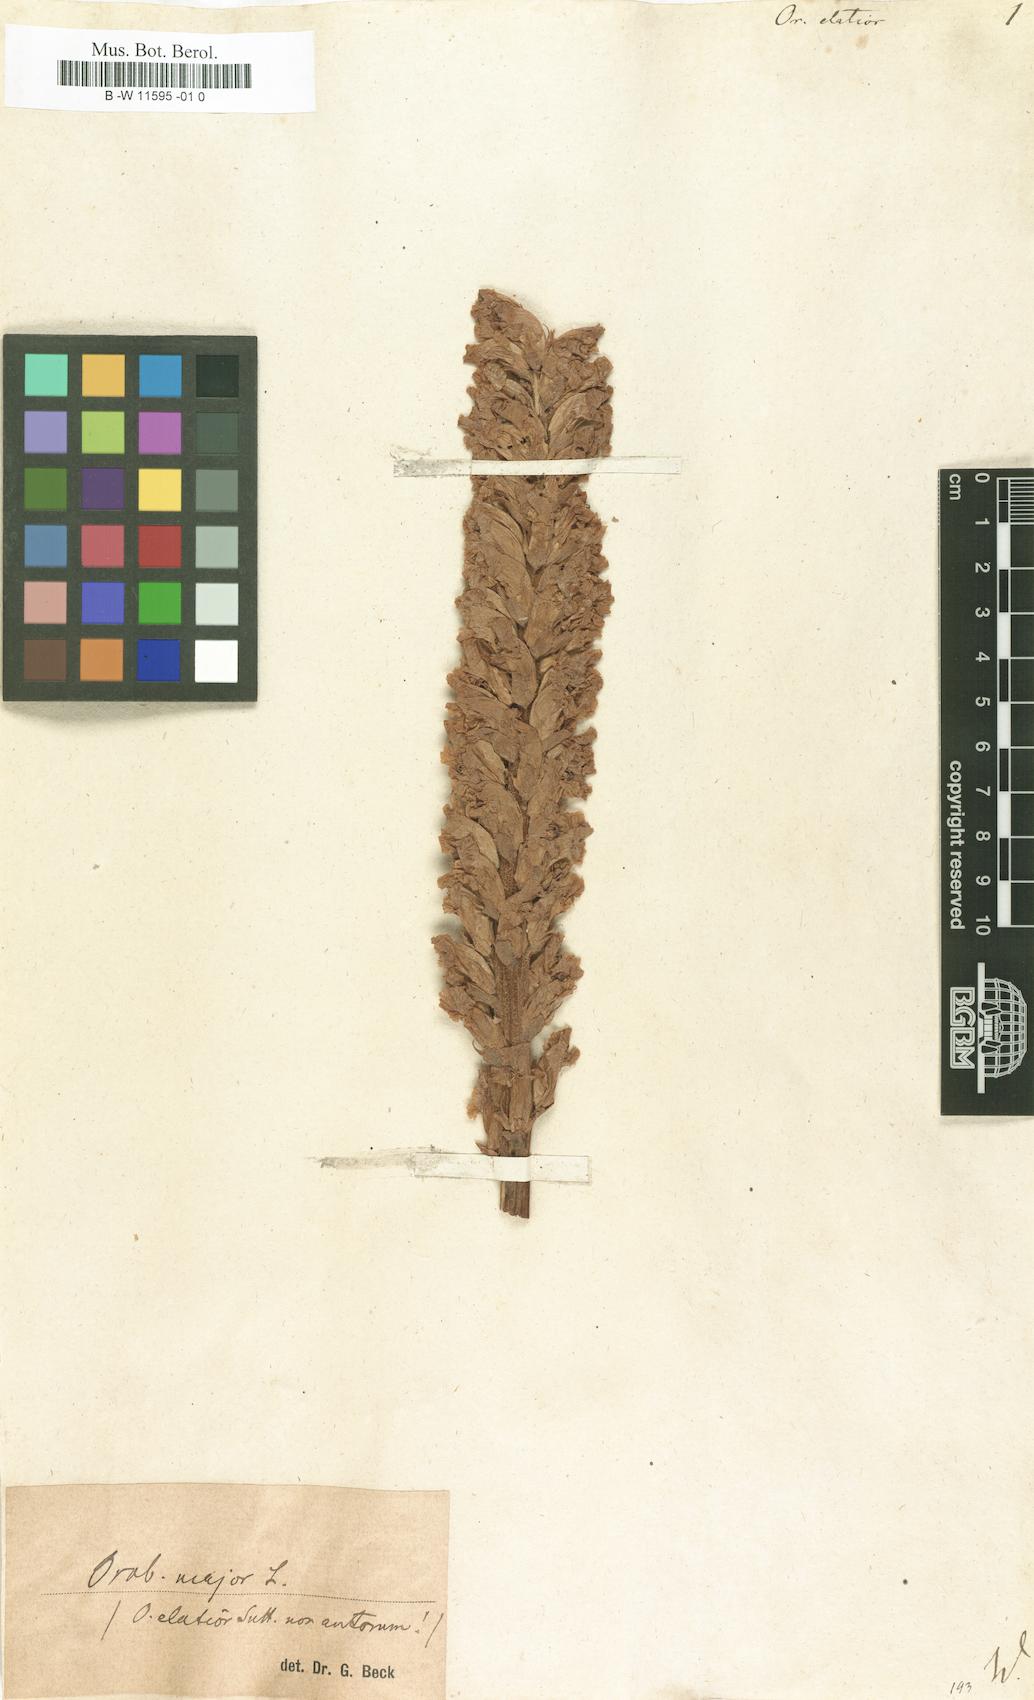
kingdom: Plantae
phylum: Tracheophyta
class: Magnoliopsida
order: Lamiales
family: Orobanchaceae
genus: Orobanche
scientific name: Orobanche elatior
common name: Knapweed broomrape
